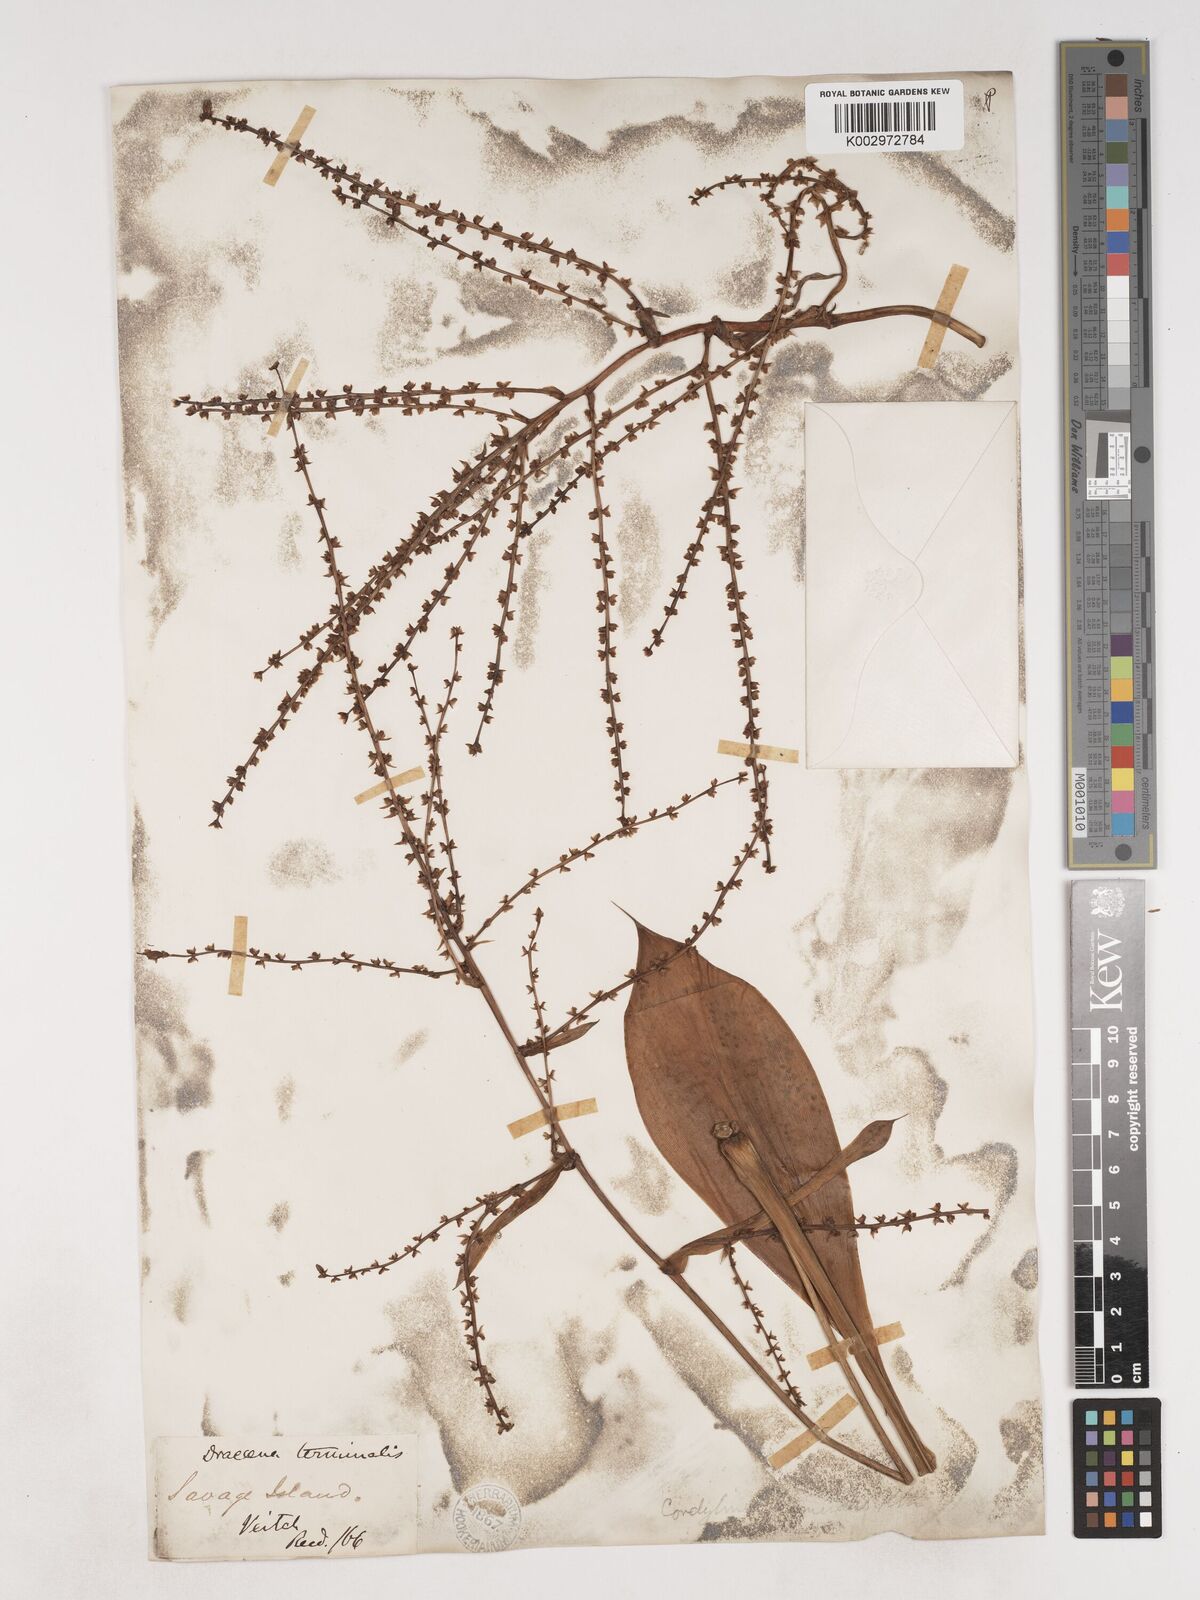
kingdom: Plantae
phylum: Tracheophyta
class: Liliopsida
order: Asparagales
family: Asparagaceae
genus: Cordyline
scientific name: Cordyline fruticosa
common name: Good-luck-plant
